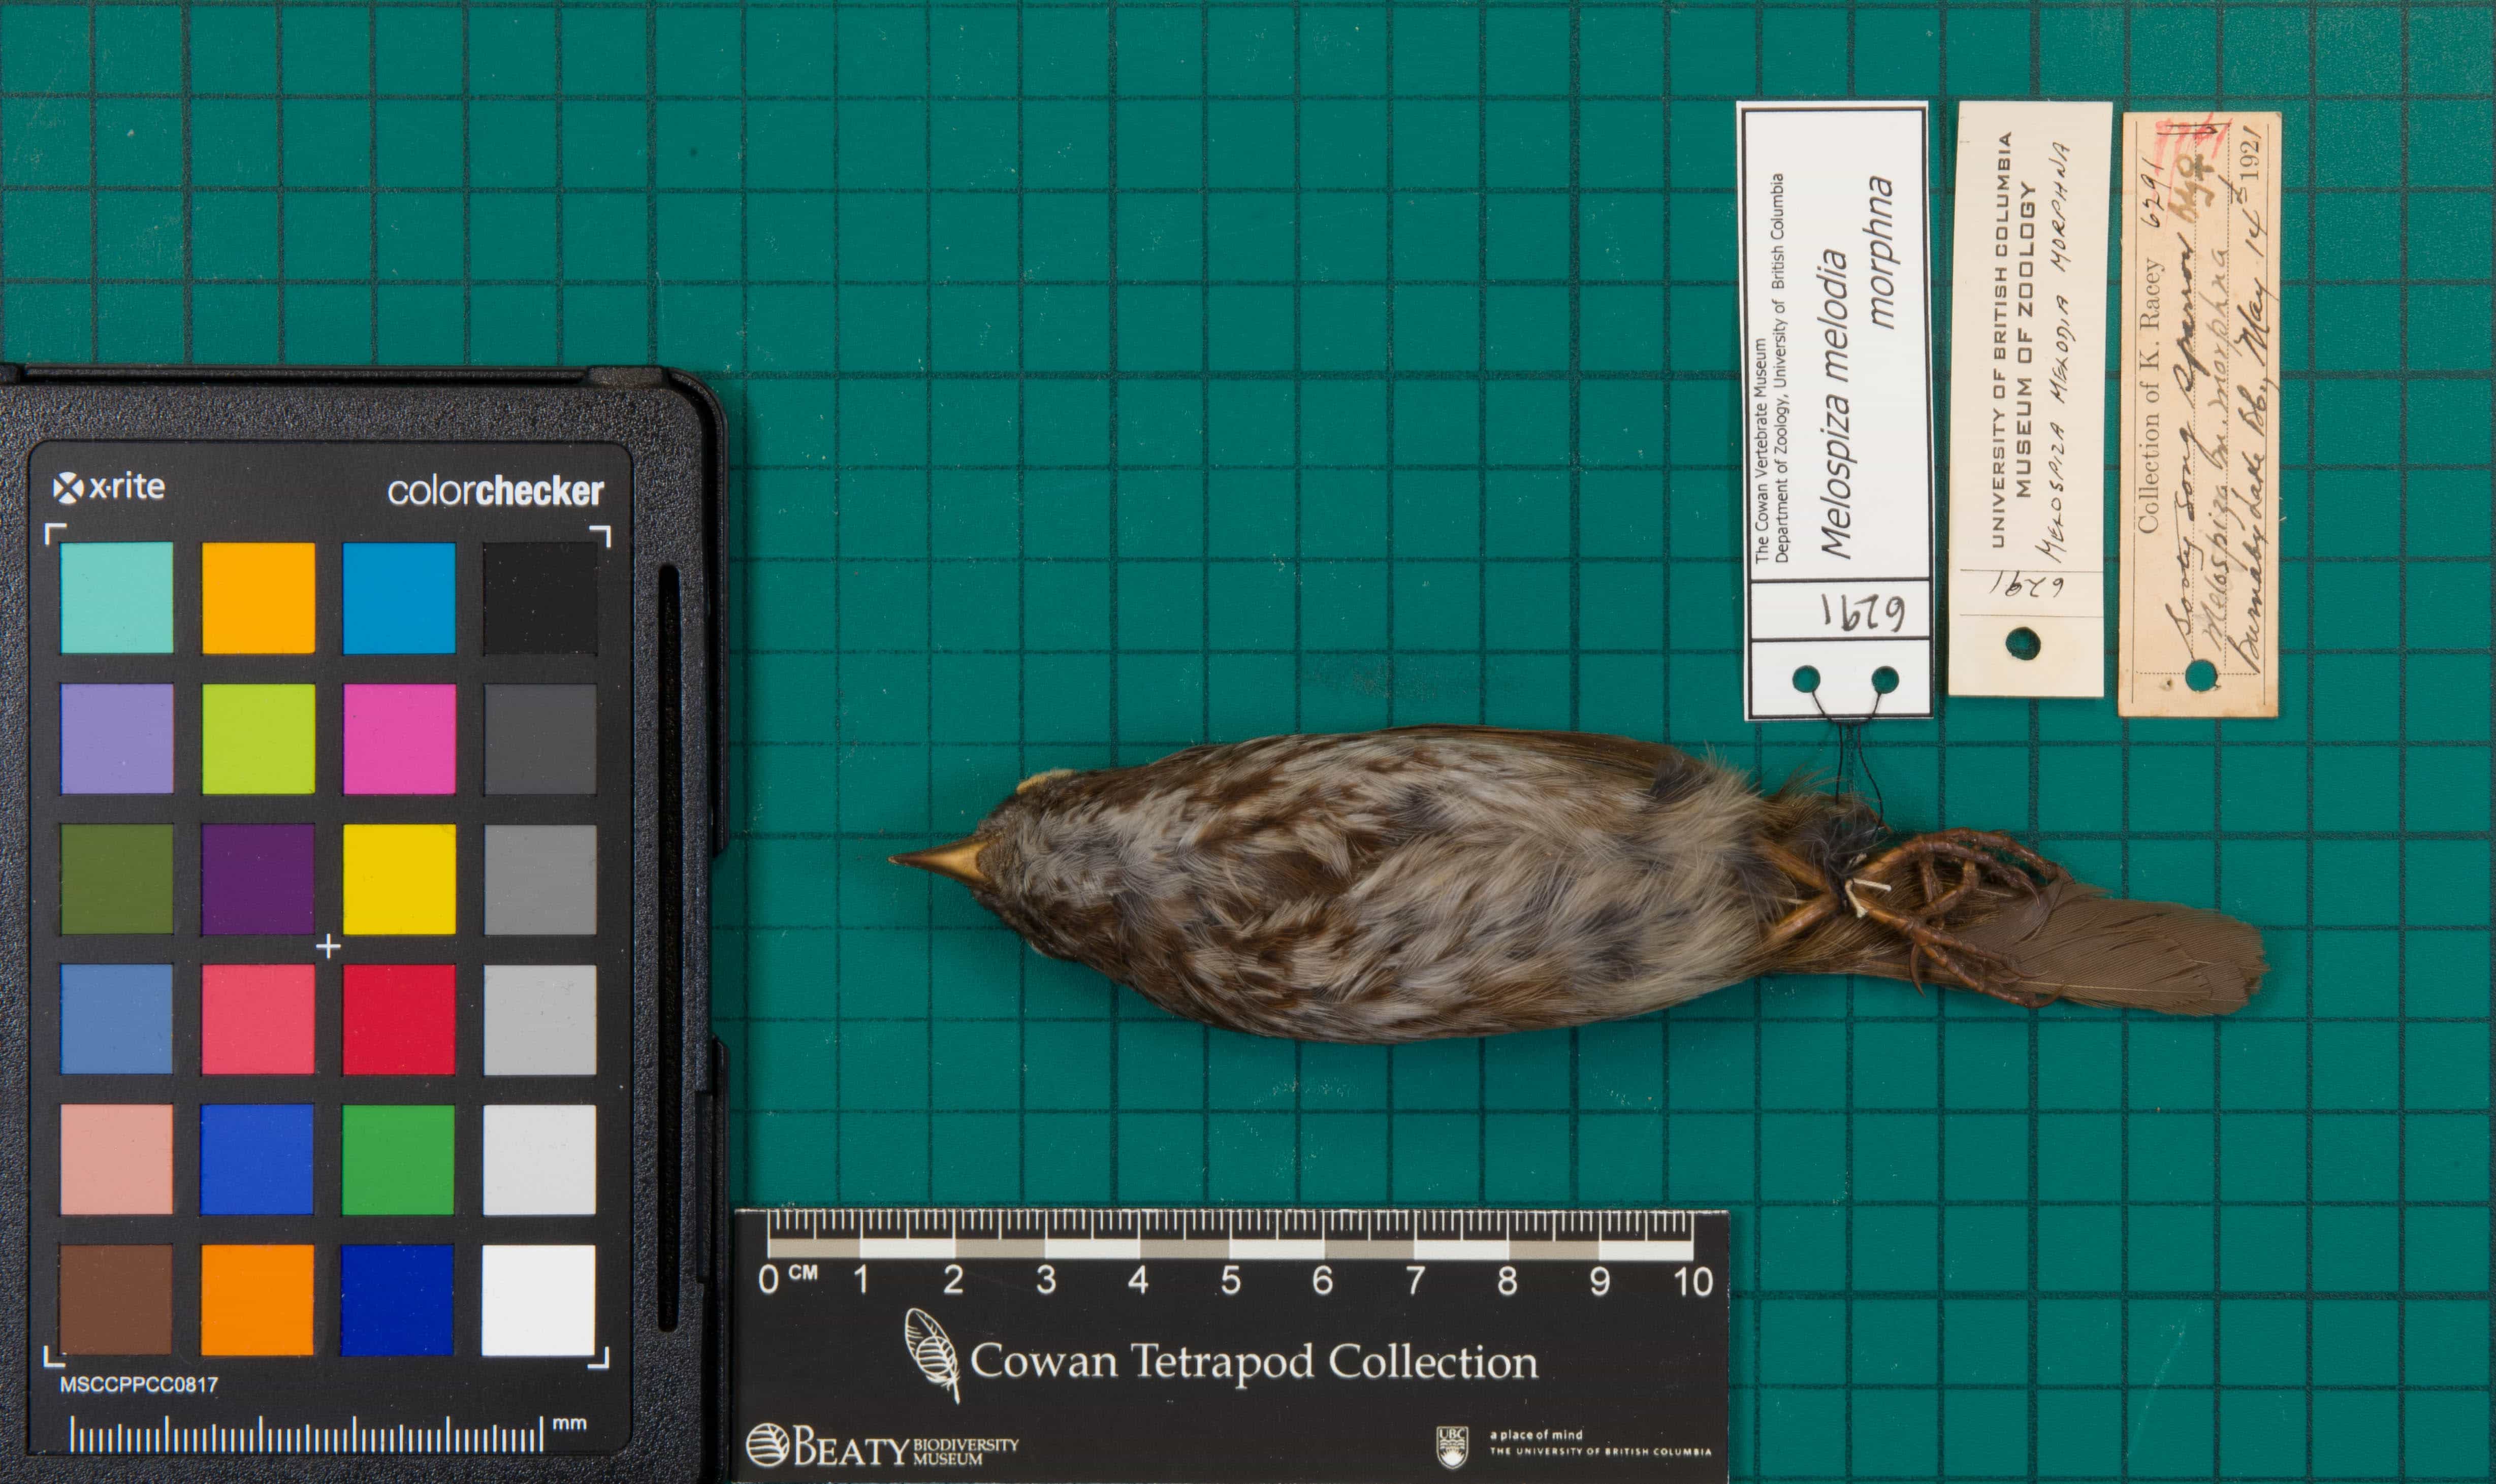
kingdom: Animalia
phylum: Chordata
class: Aves
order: Passeriformes
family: Passerellidae
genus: Melospiza
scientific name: Melospiza melodia
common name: Song Sparrow
